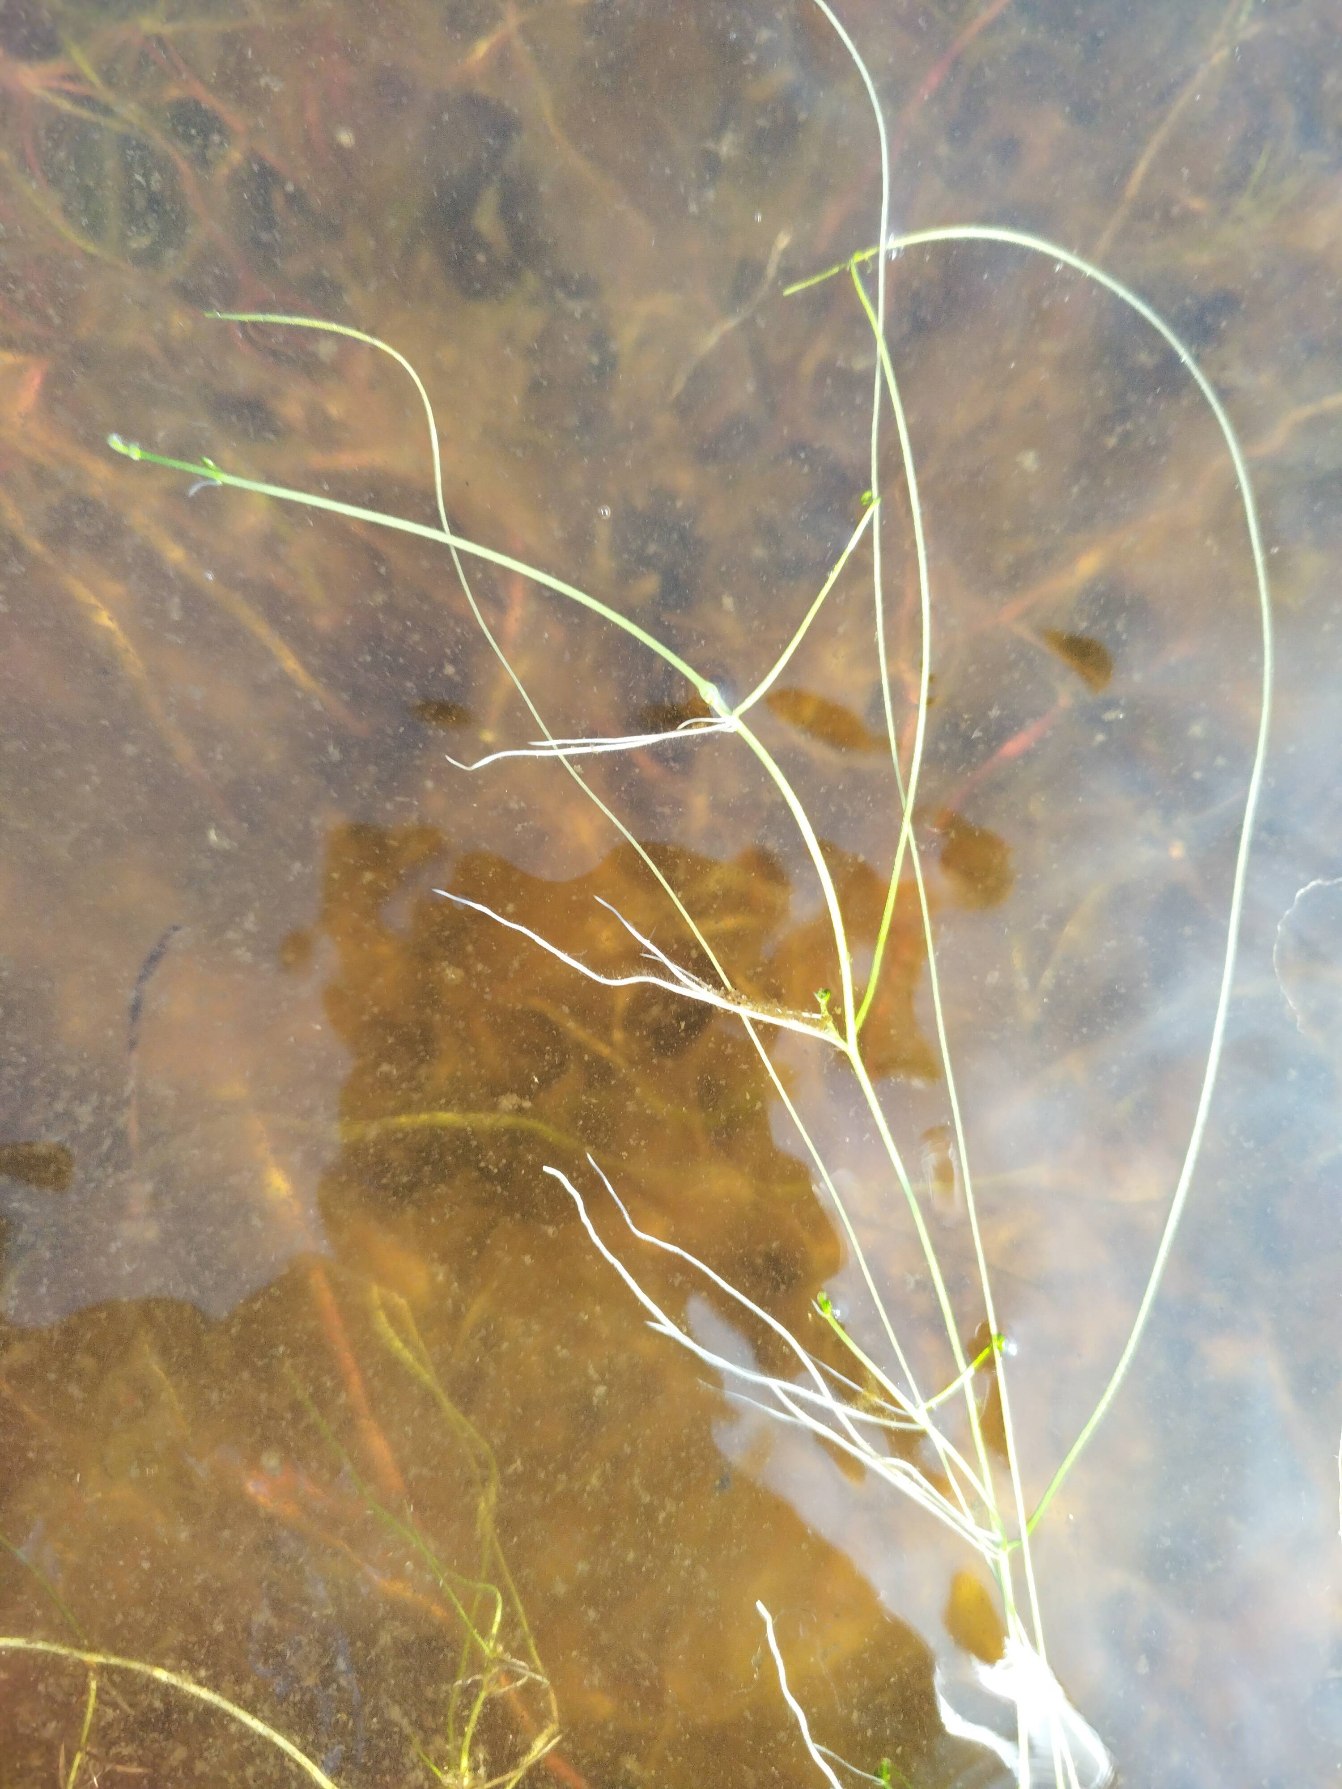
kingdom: Plantae
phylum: Tracheophyta
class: Polypodiopsida
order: Salviniales
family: Marsileaceae
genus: Pilularia
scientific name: Pilularia globulifera
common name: Pilledrager
